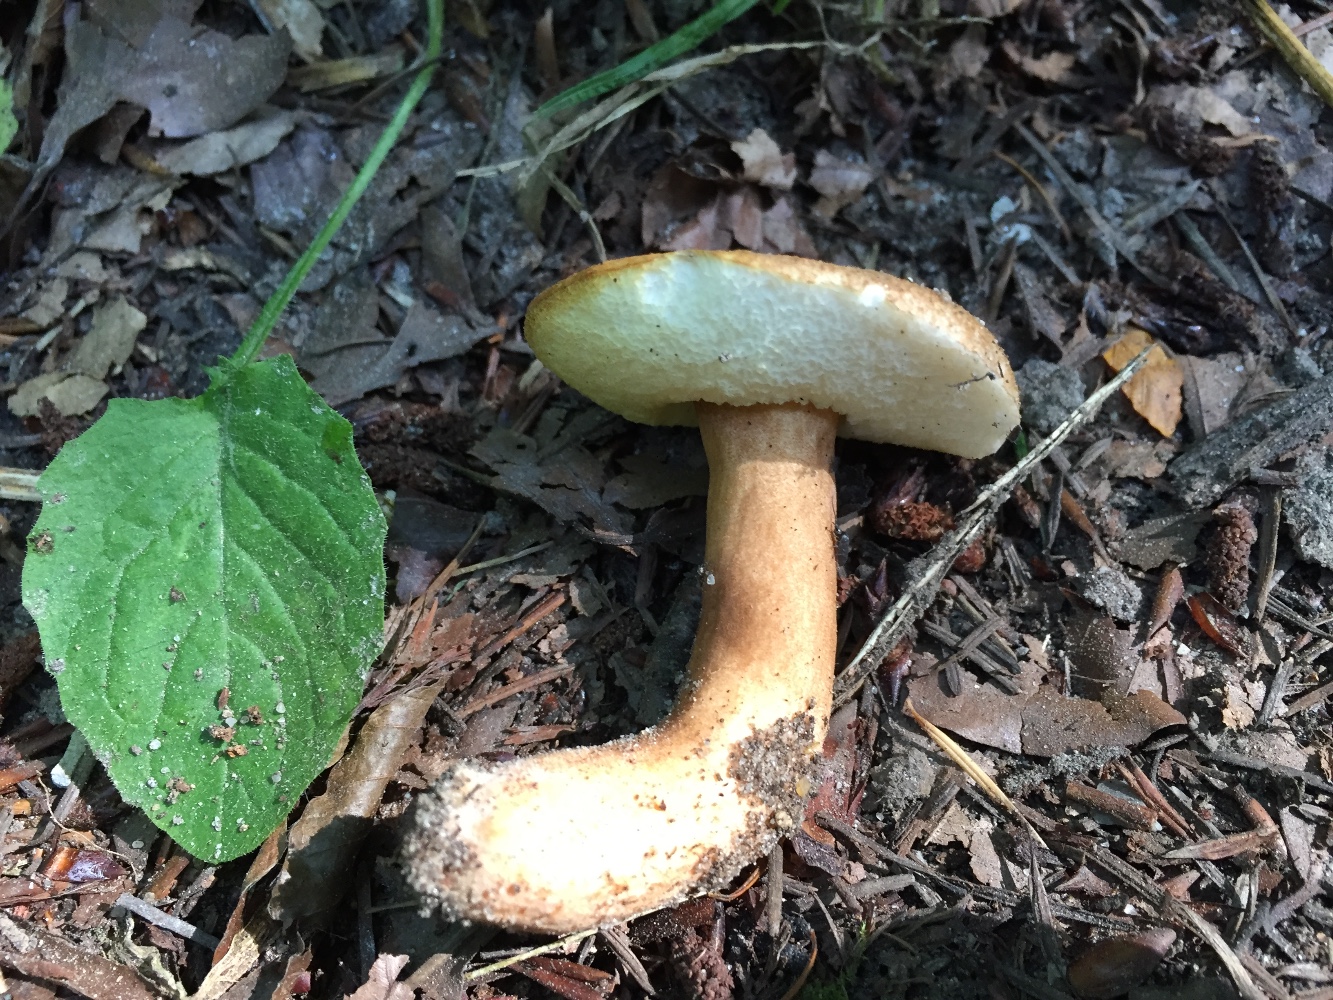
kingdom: Fungi
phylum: Basidiomycota
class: Agaricomycetes
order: Boletales
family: Gyroporaceae
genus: Gyroporus
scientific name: Gyroporus castaneus
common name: kastanie-kammerrørhat
